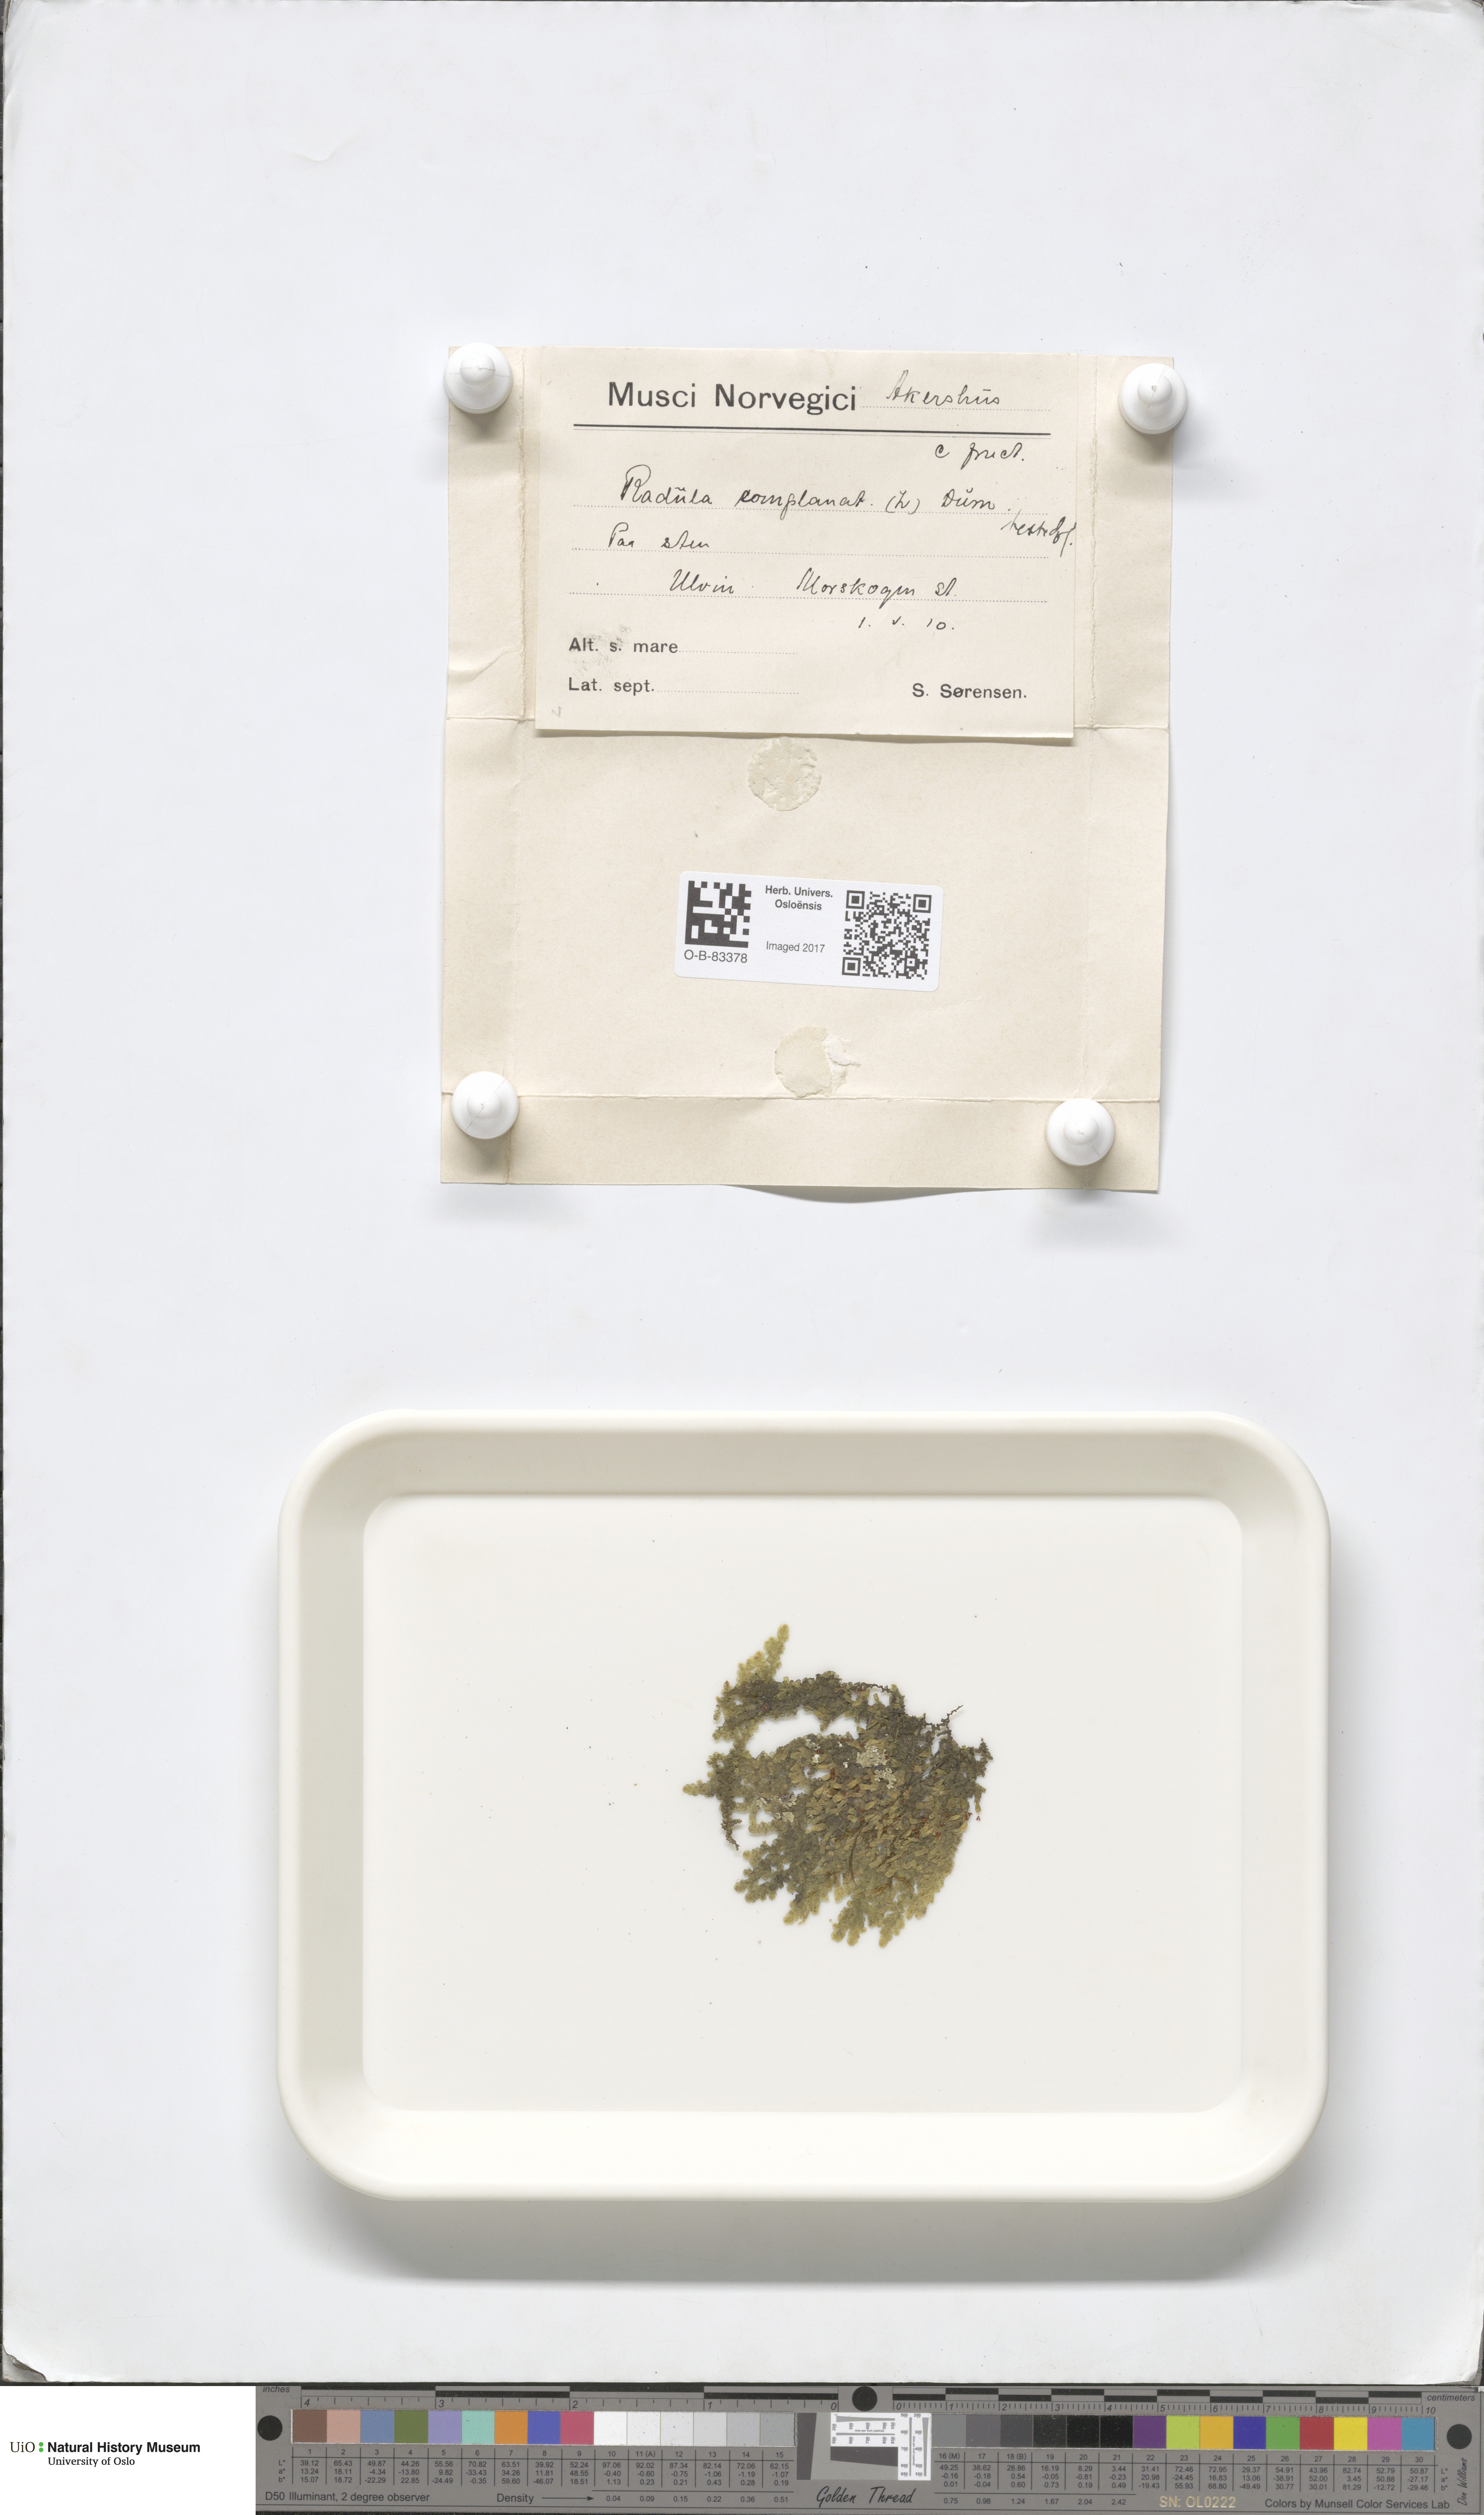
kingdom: Plantae
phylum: Marchantiophyta
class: Jungermanniopsida
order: Porellales
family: Radulaceae
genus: Radula
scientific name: Radula complanata
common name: Flat-leaved scalewort
